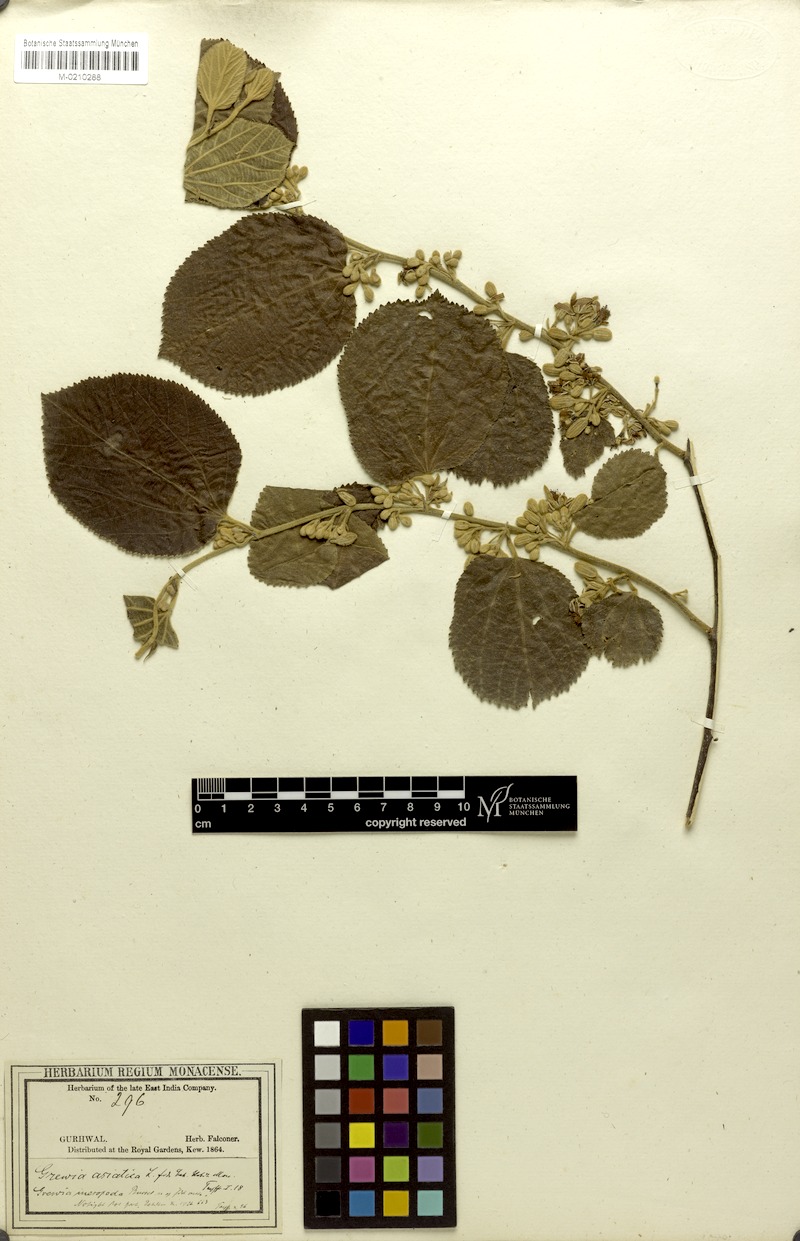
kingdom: Plantae
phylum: Tracheophyta
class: Magnoliopsida
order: Malvales
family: Malvaceae
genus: Grewia
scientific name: Grewia eriocarpa
